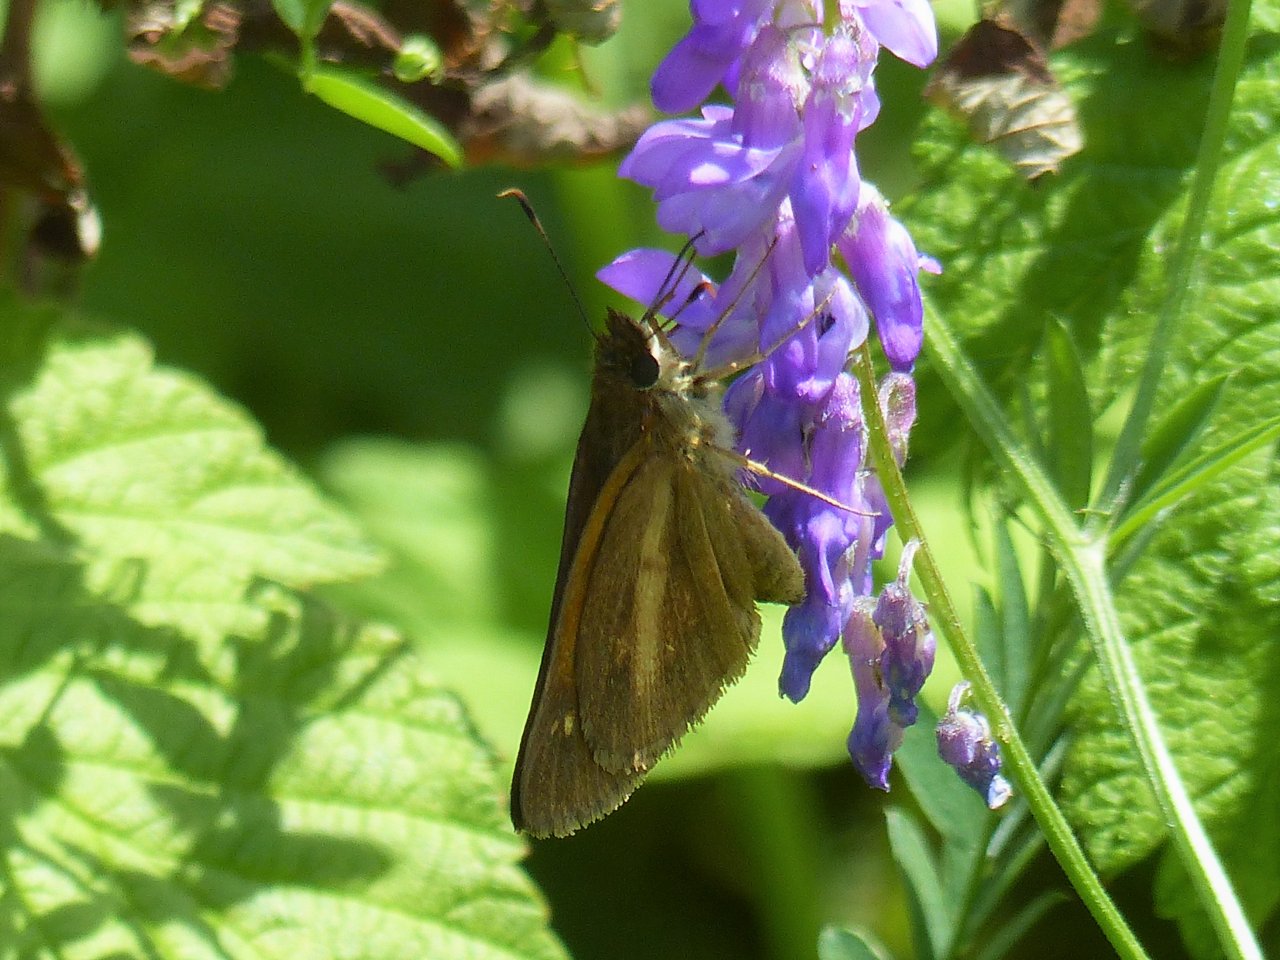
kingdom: Animalia
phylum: Arthropoda
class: Insecta
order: Lepidoptera
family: Hesperiidae
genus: Poanes
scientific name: Poanes viator
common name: Broad-winged Skipper
